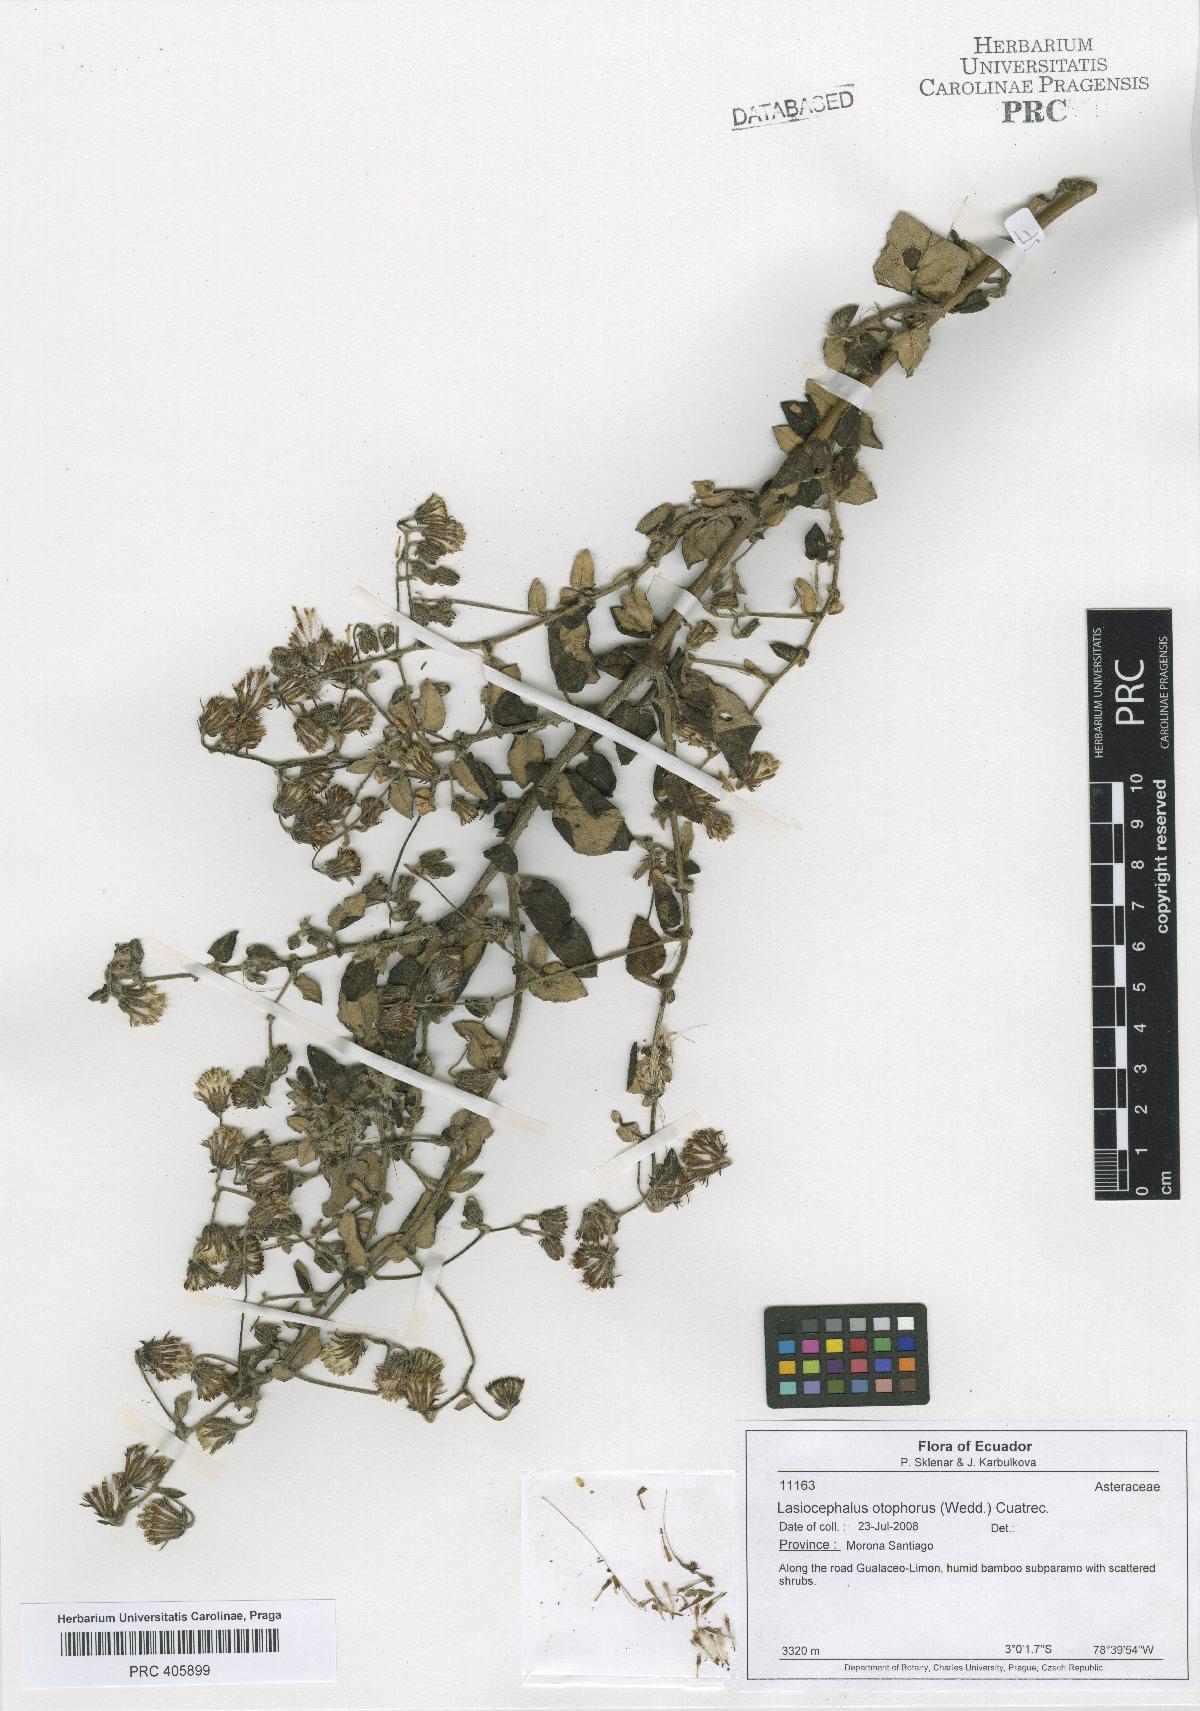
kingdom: Plantae
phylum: Tracheophyta
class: Magnoliopsida
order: Asterales
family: Asteraceae
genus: Aetheolaena
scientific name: Aetheolaena otophora
